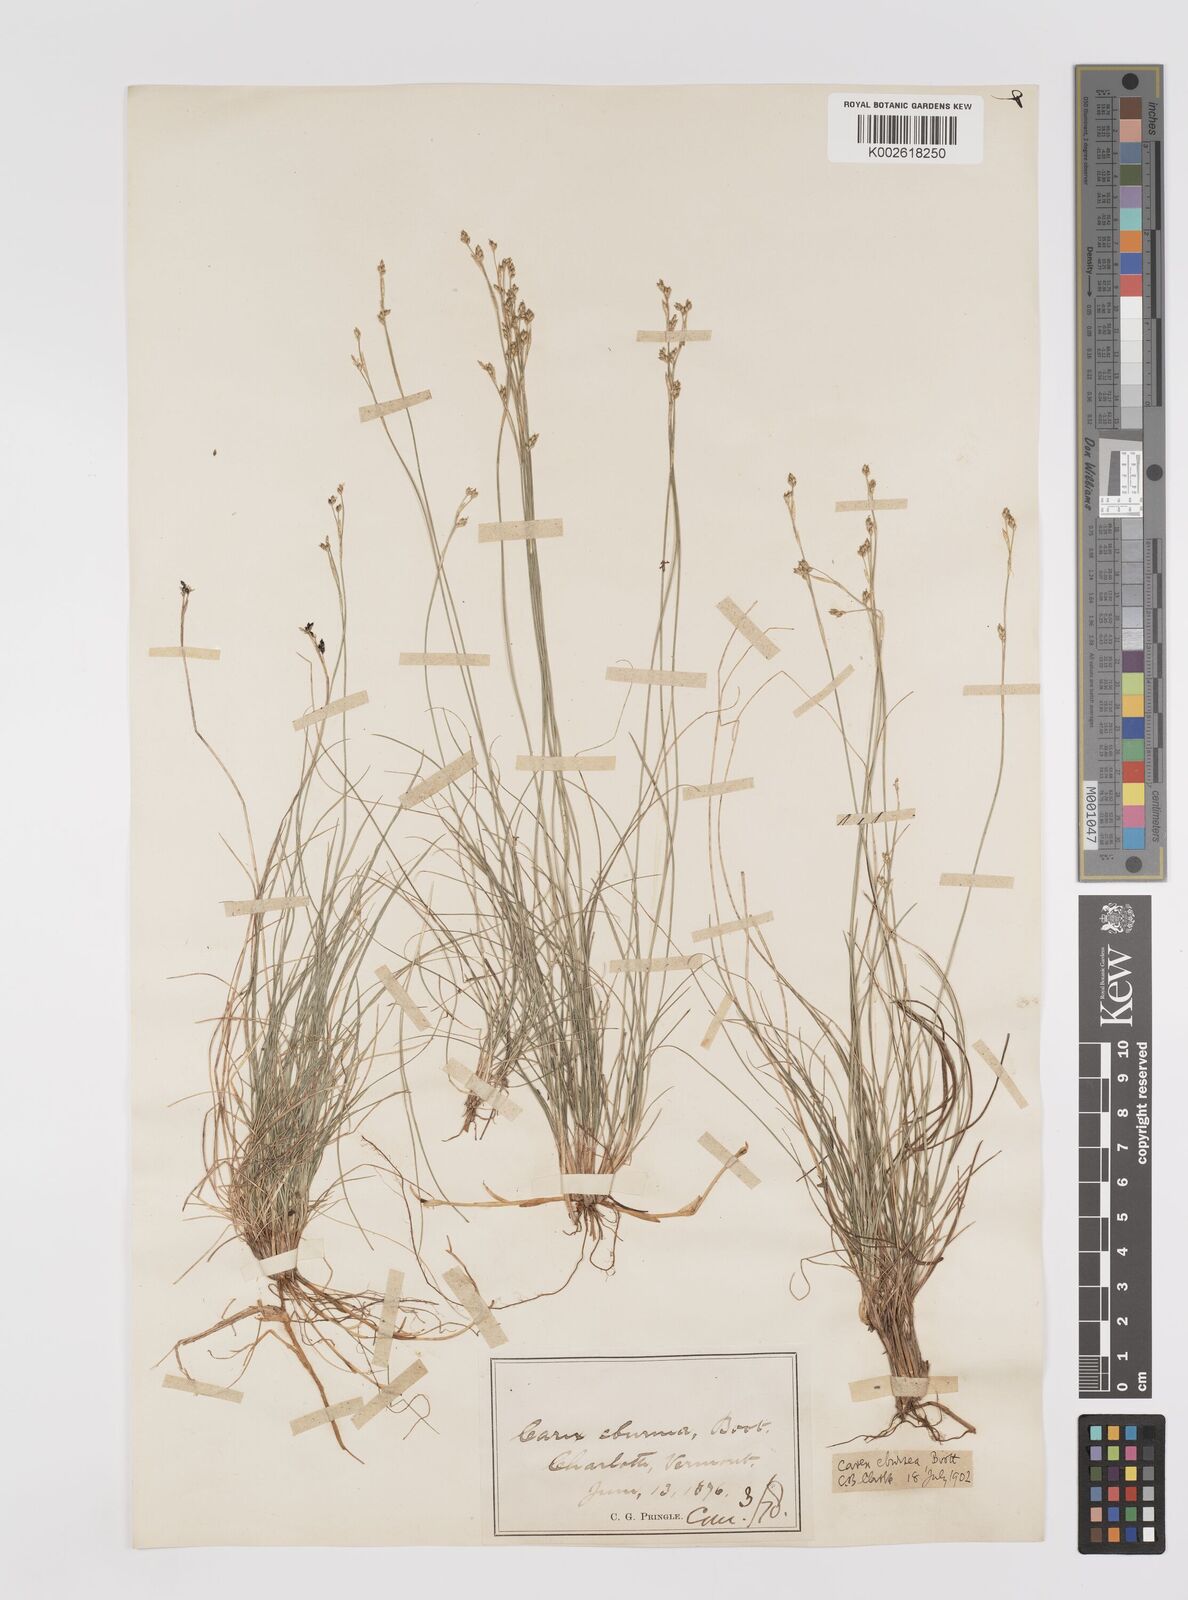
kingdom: Plantae
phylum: Tracheophyta
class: Liliopsida
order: Poales
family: Cyperaceae
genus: Carex
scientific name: Carex eburnea
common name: Bristle-leaved sedge
